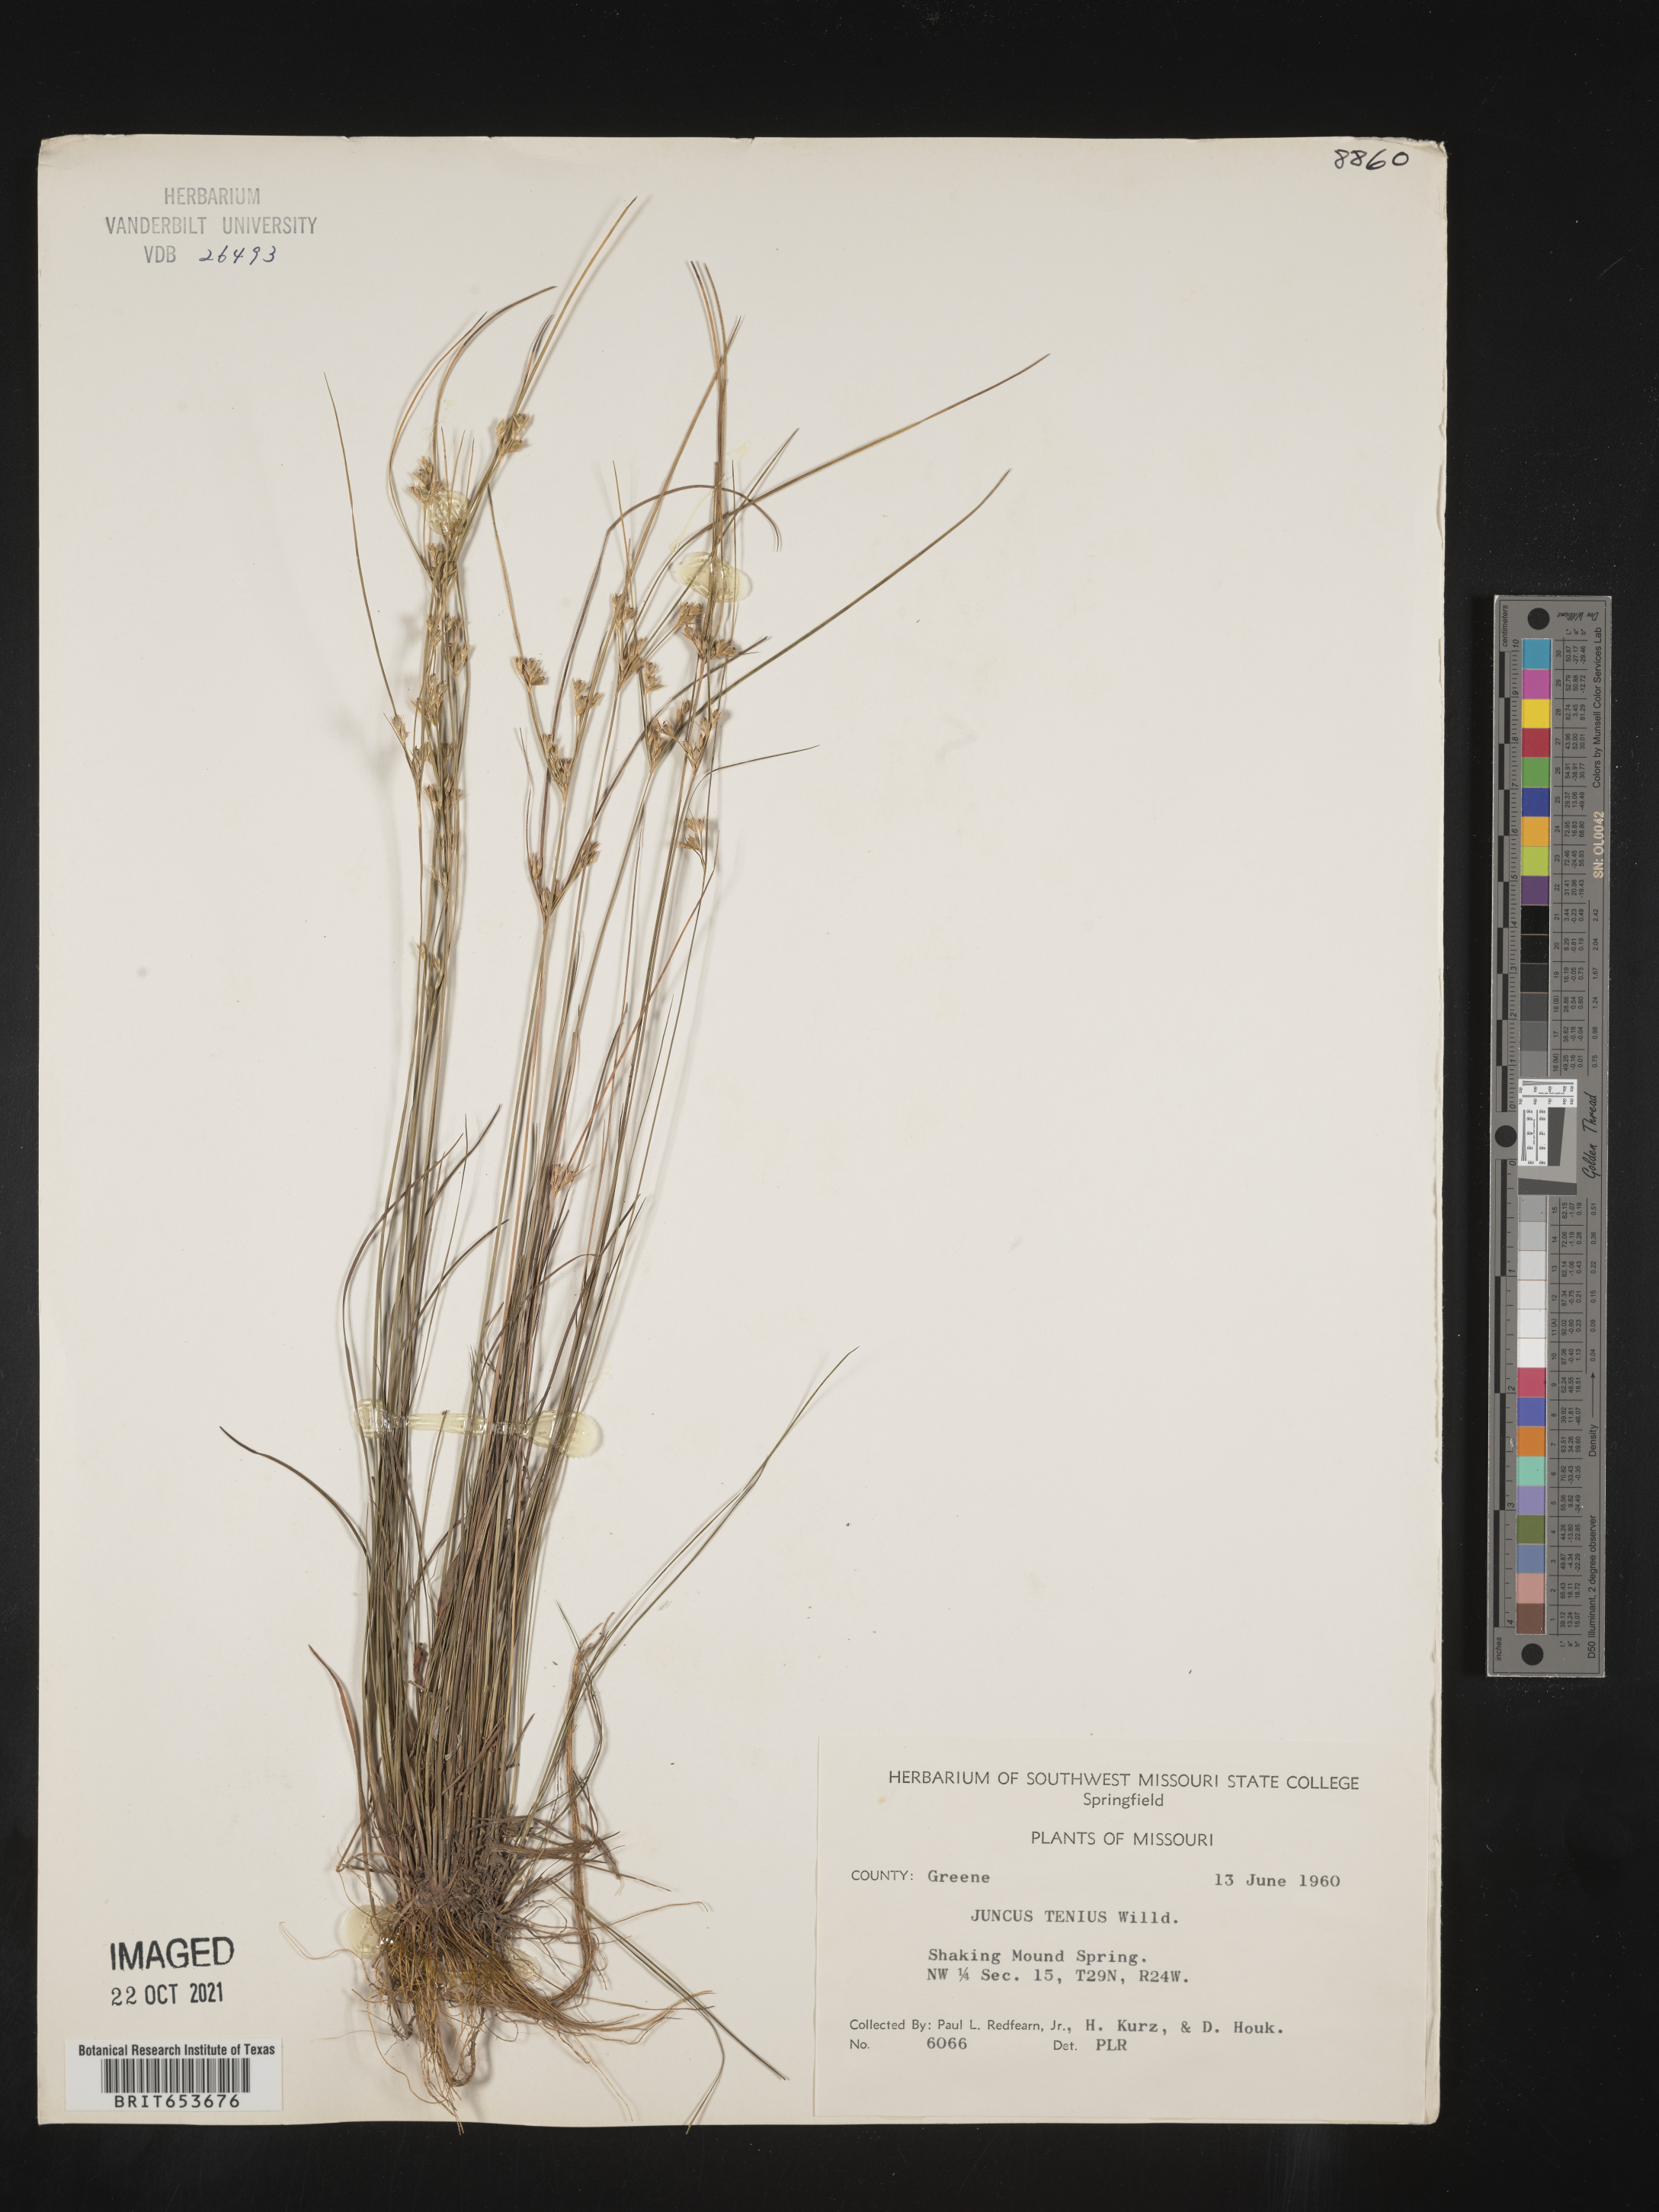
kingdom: Plantae
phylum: Tracheophyta
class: Liliopsida
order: Poales
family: Juncaceae
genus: Juncus
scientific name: Juncus tenuis
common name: Slender rush
